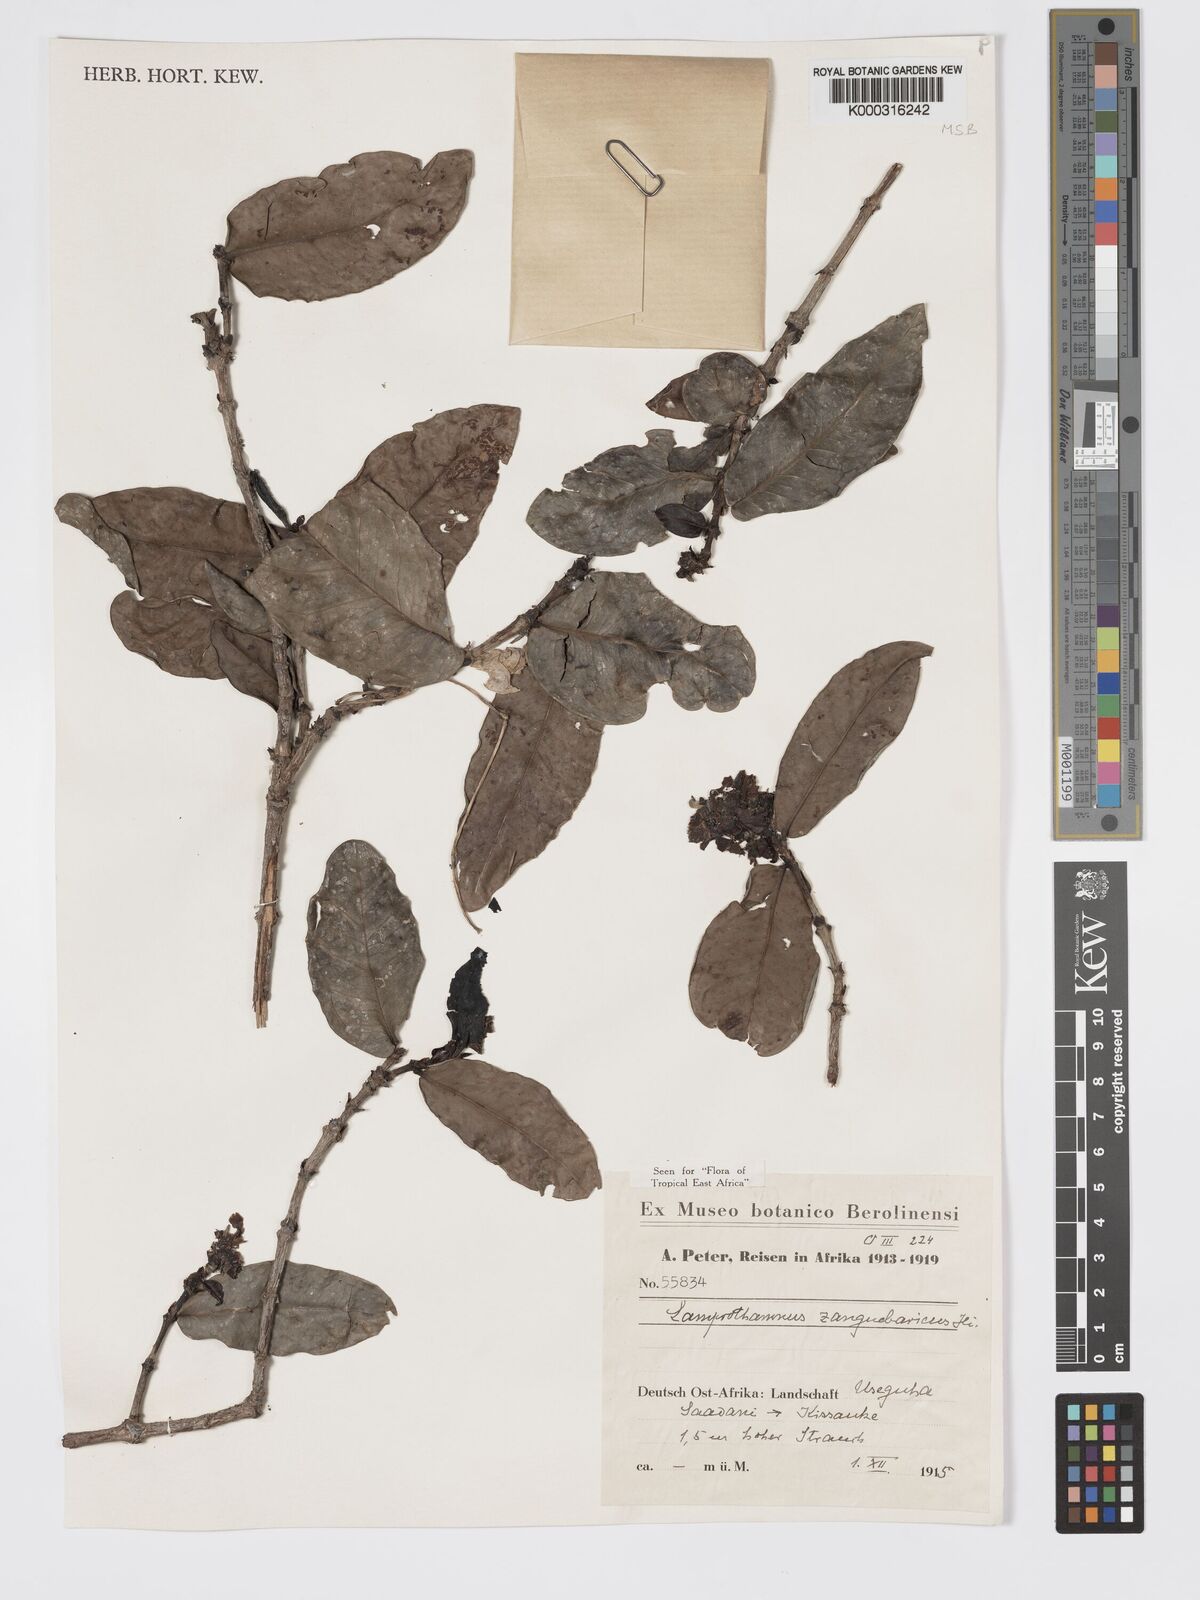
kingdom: Plantae
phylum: Tracheophyta
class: Magnoliopsida
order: Gentianales
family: Rubiaceae
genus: Lamprothamnus
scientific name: Lamprothamnus zanguebaricus
